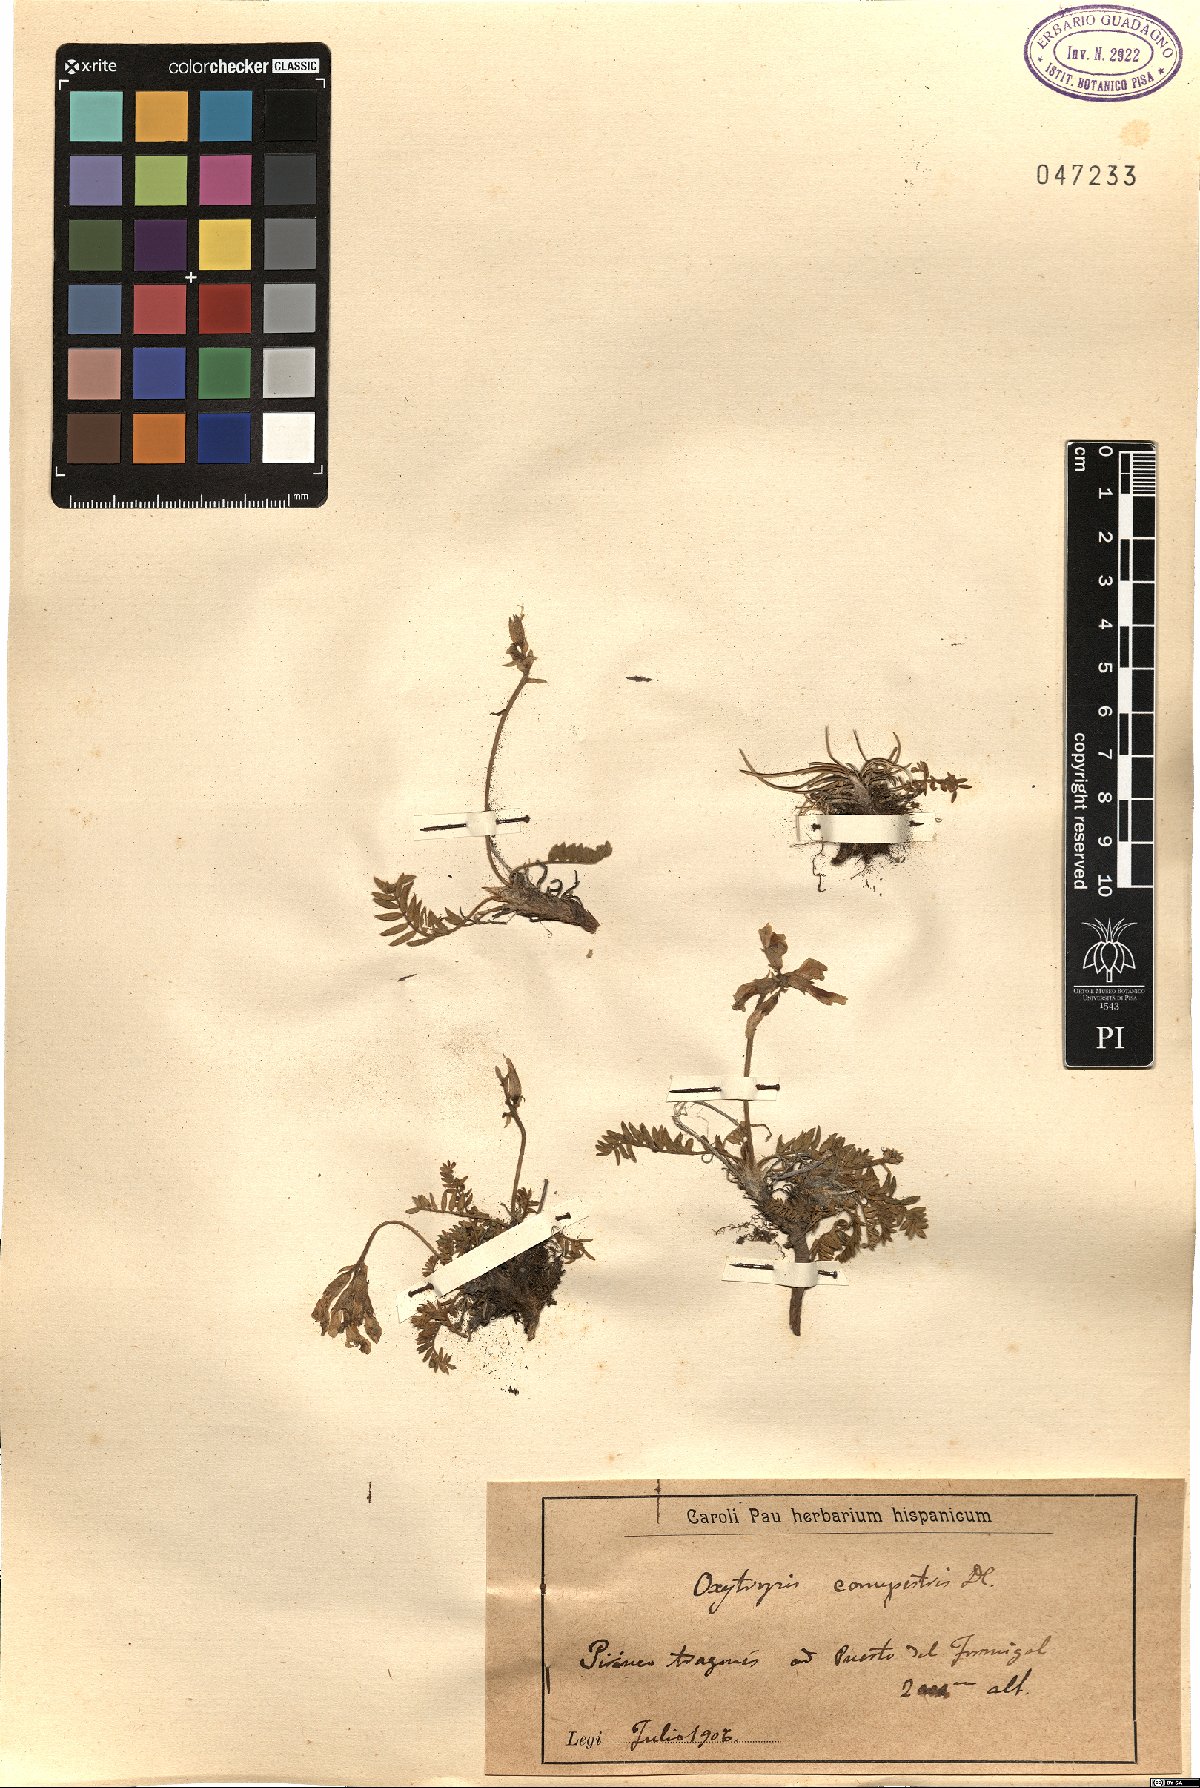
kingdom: Plantae
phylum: Tracheophyta
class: Magnoliopsida
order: Fabales
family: Fabaceae
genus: Oxytropis
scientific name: Oxytropis campestris
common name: Field locoweed
